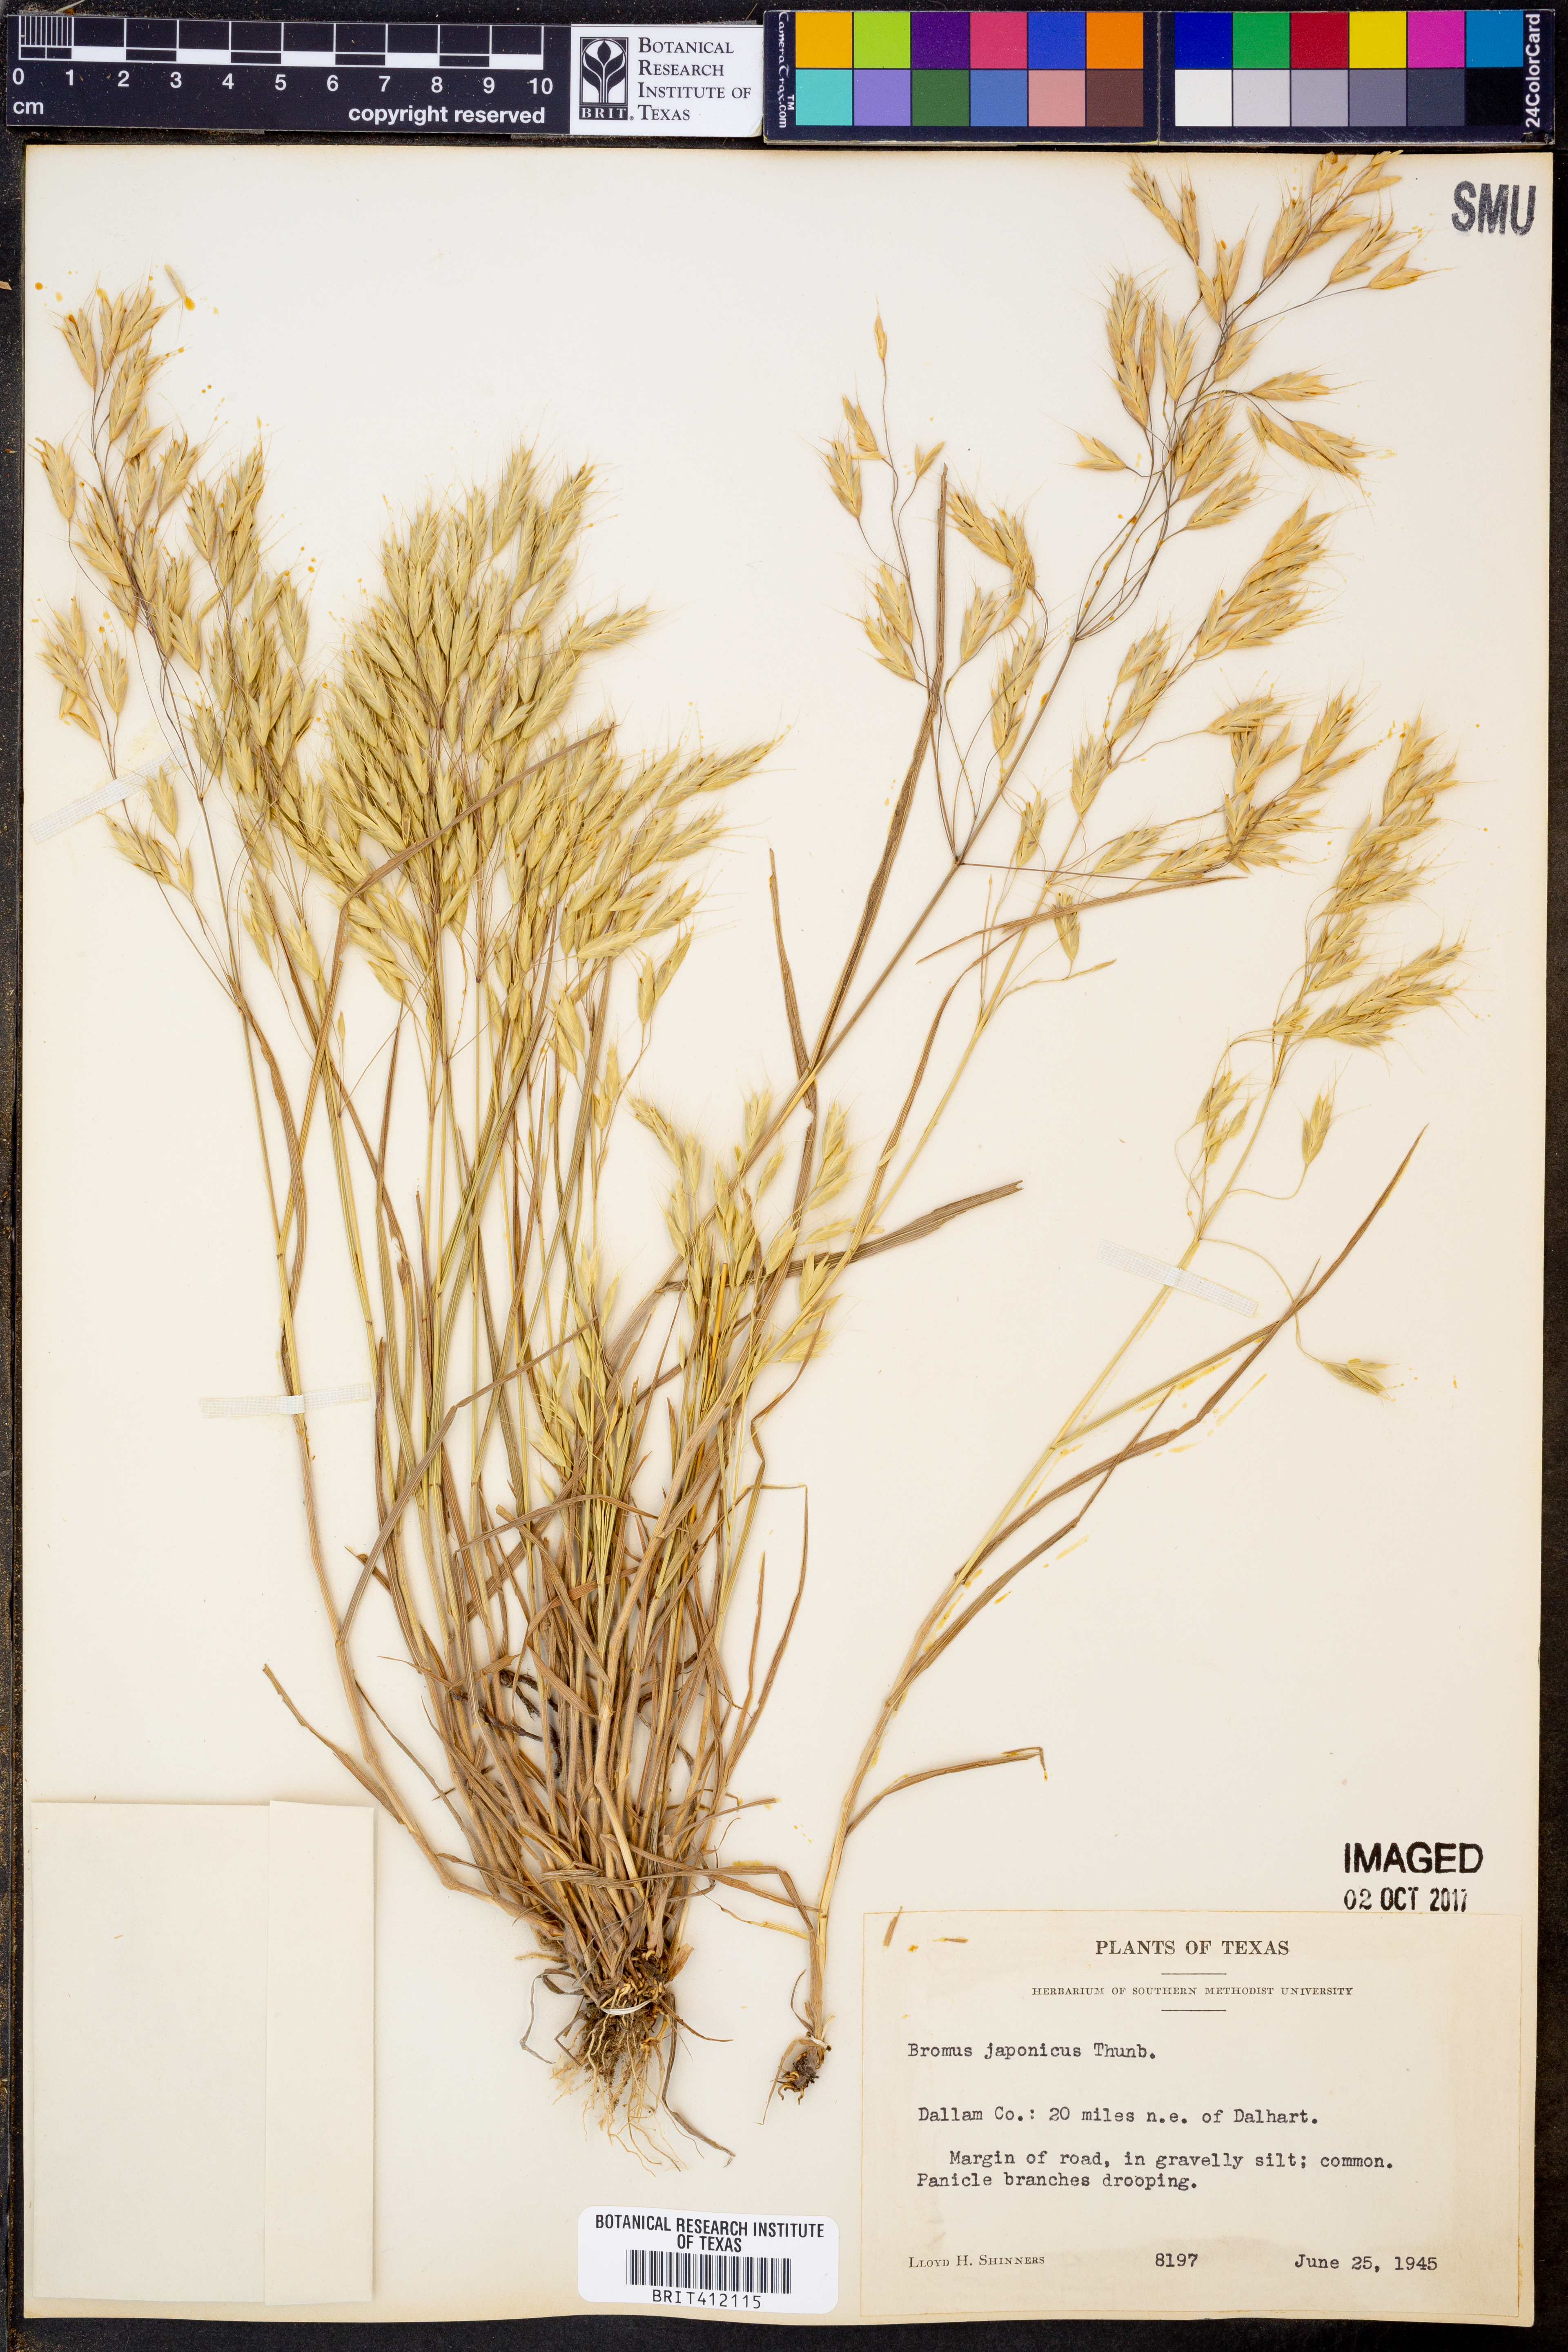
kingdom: Plantae
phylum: Tracheophyta
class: Liliopsida
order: Poales
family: Poaceae
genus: Bromus
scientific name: Bromus japonicus
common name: Japanese brome
